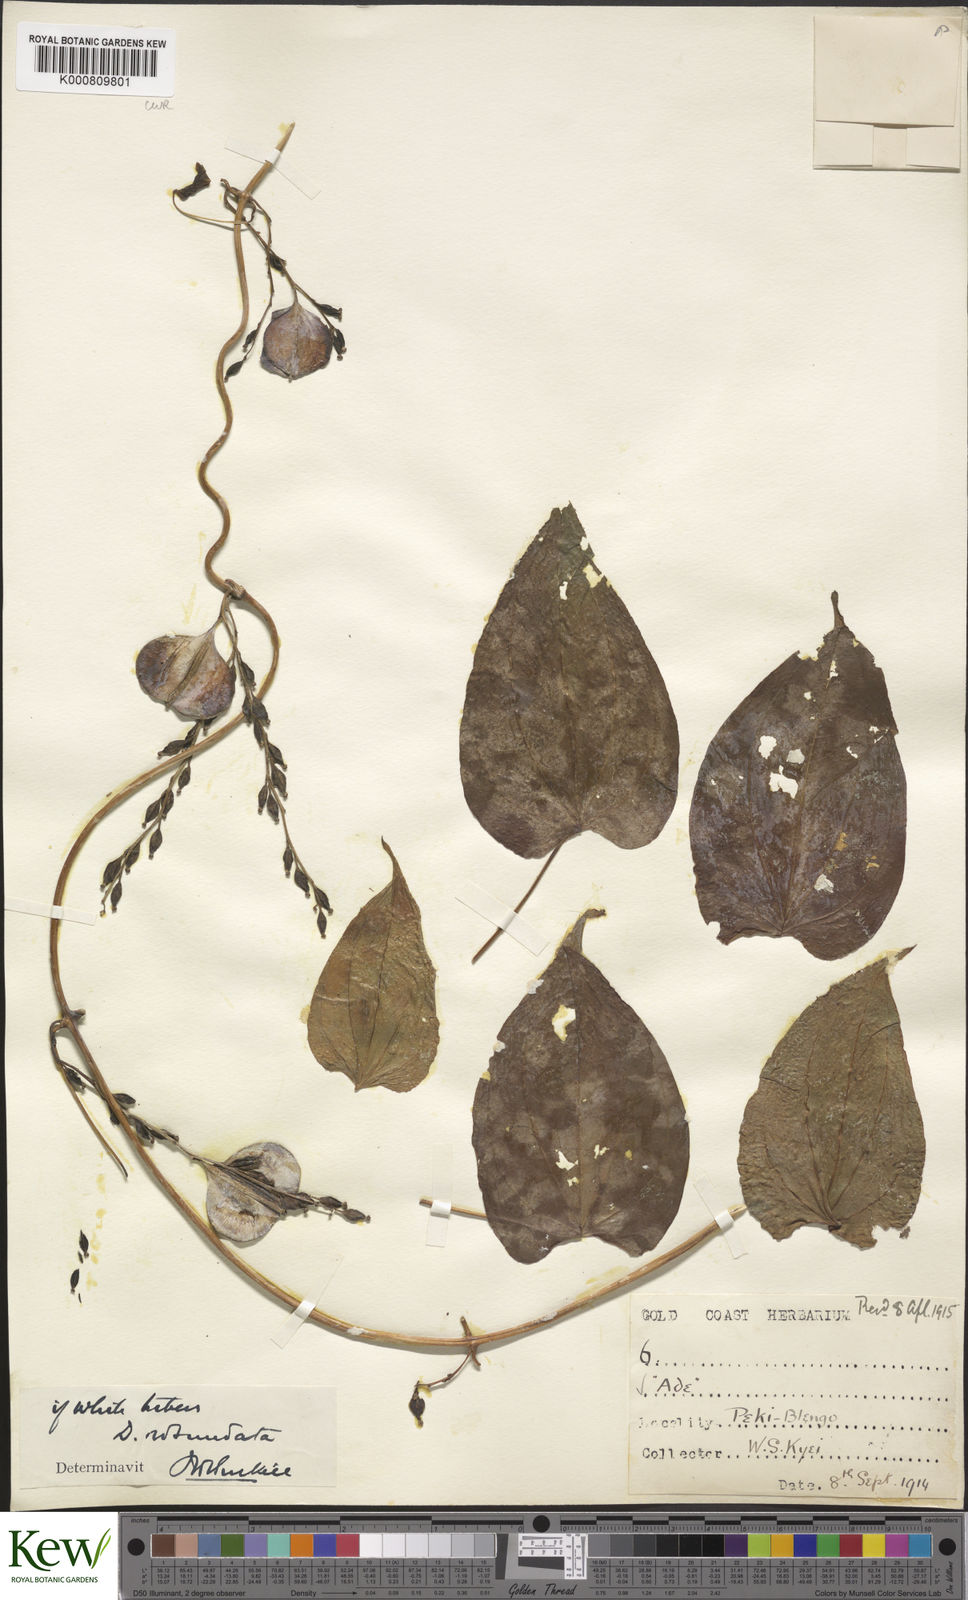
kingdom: Plantae
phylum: Tracheophyta
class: Liliopsida
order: Dioscoreales
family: Dioscoreaceae
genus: Dioscorea
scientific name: Dioscorea cayenensis
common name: Attoto yam
